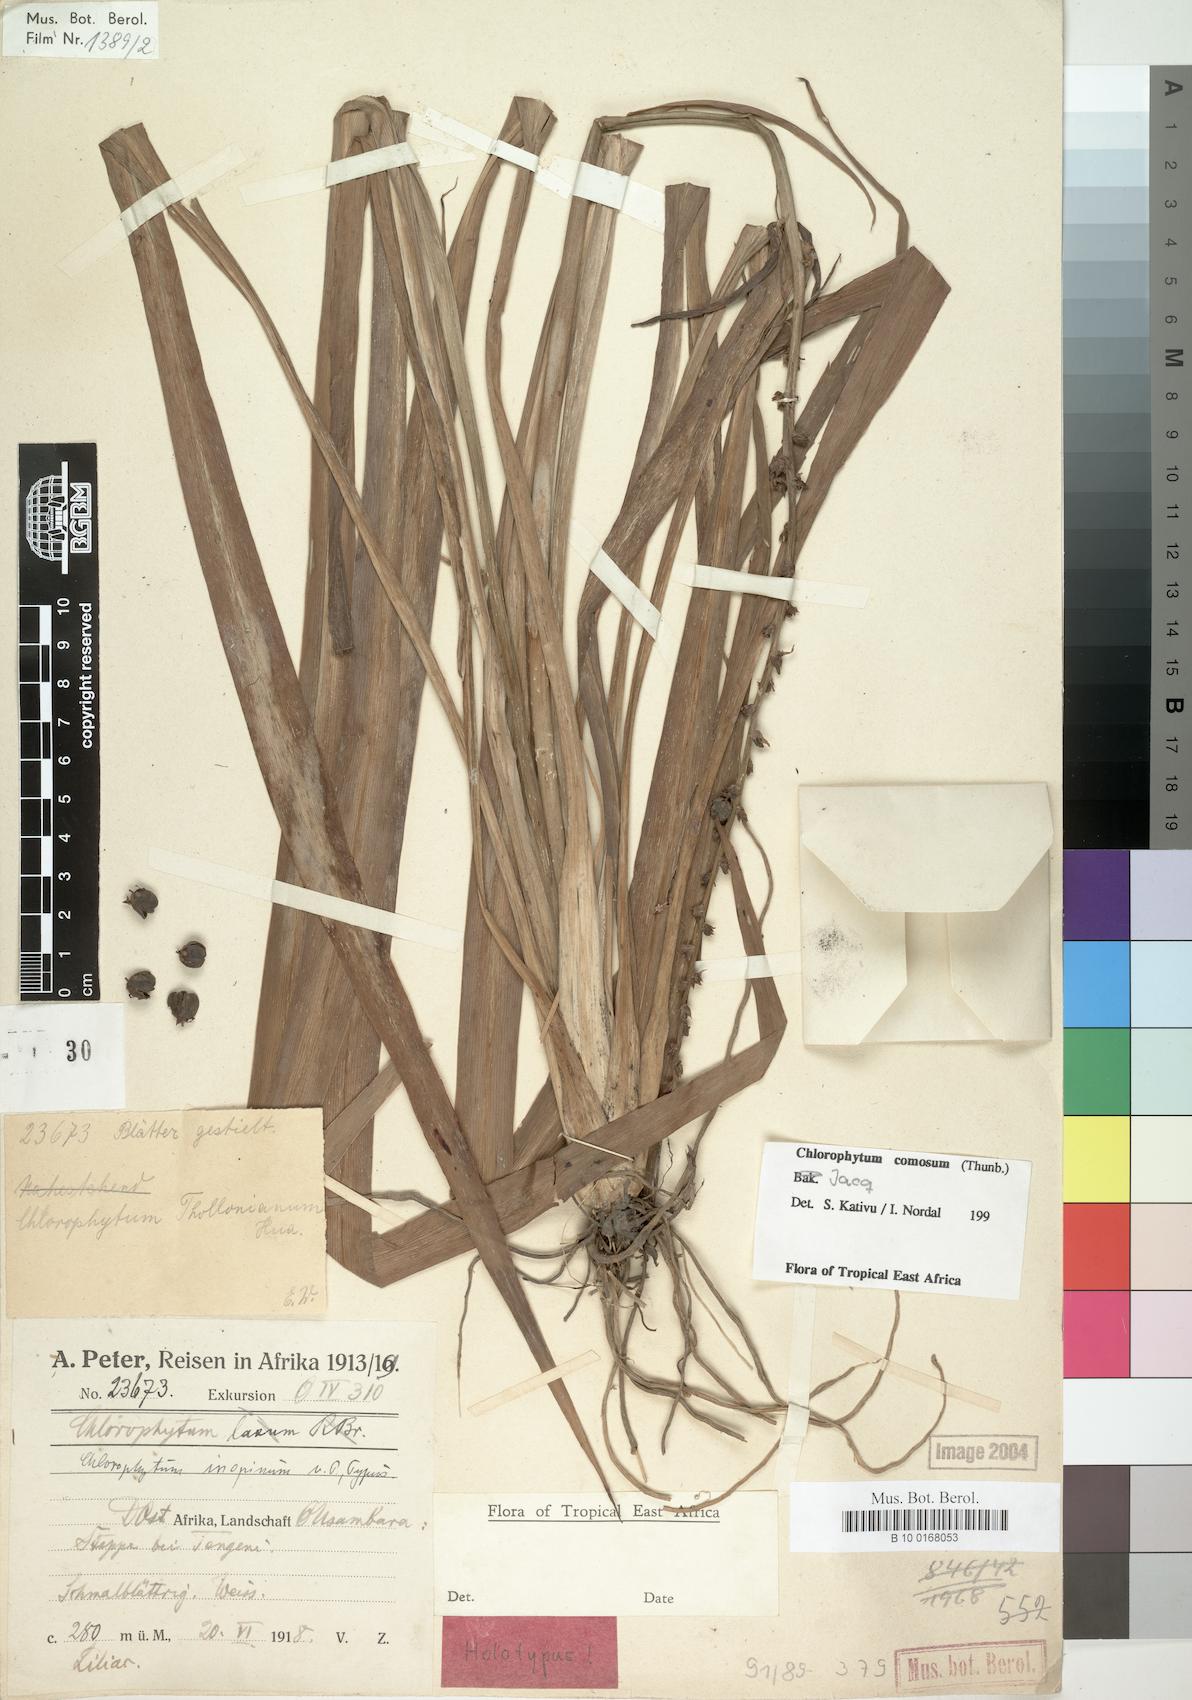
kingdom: Plantae
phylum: Tracheophyta
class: Liliopsida
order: Asparagales
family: Asparagaceae
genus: Chlorophytum
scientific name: Chlorophytum comosum
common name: Spider plant
